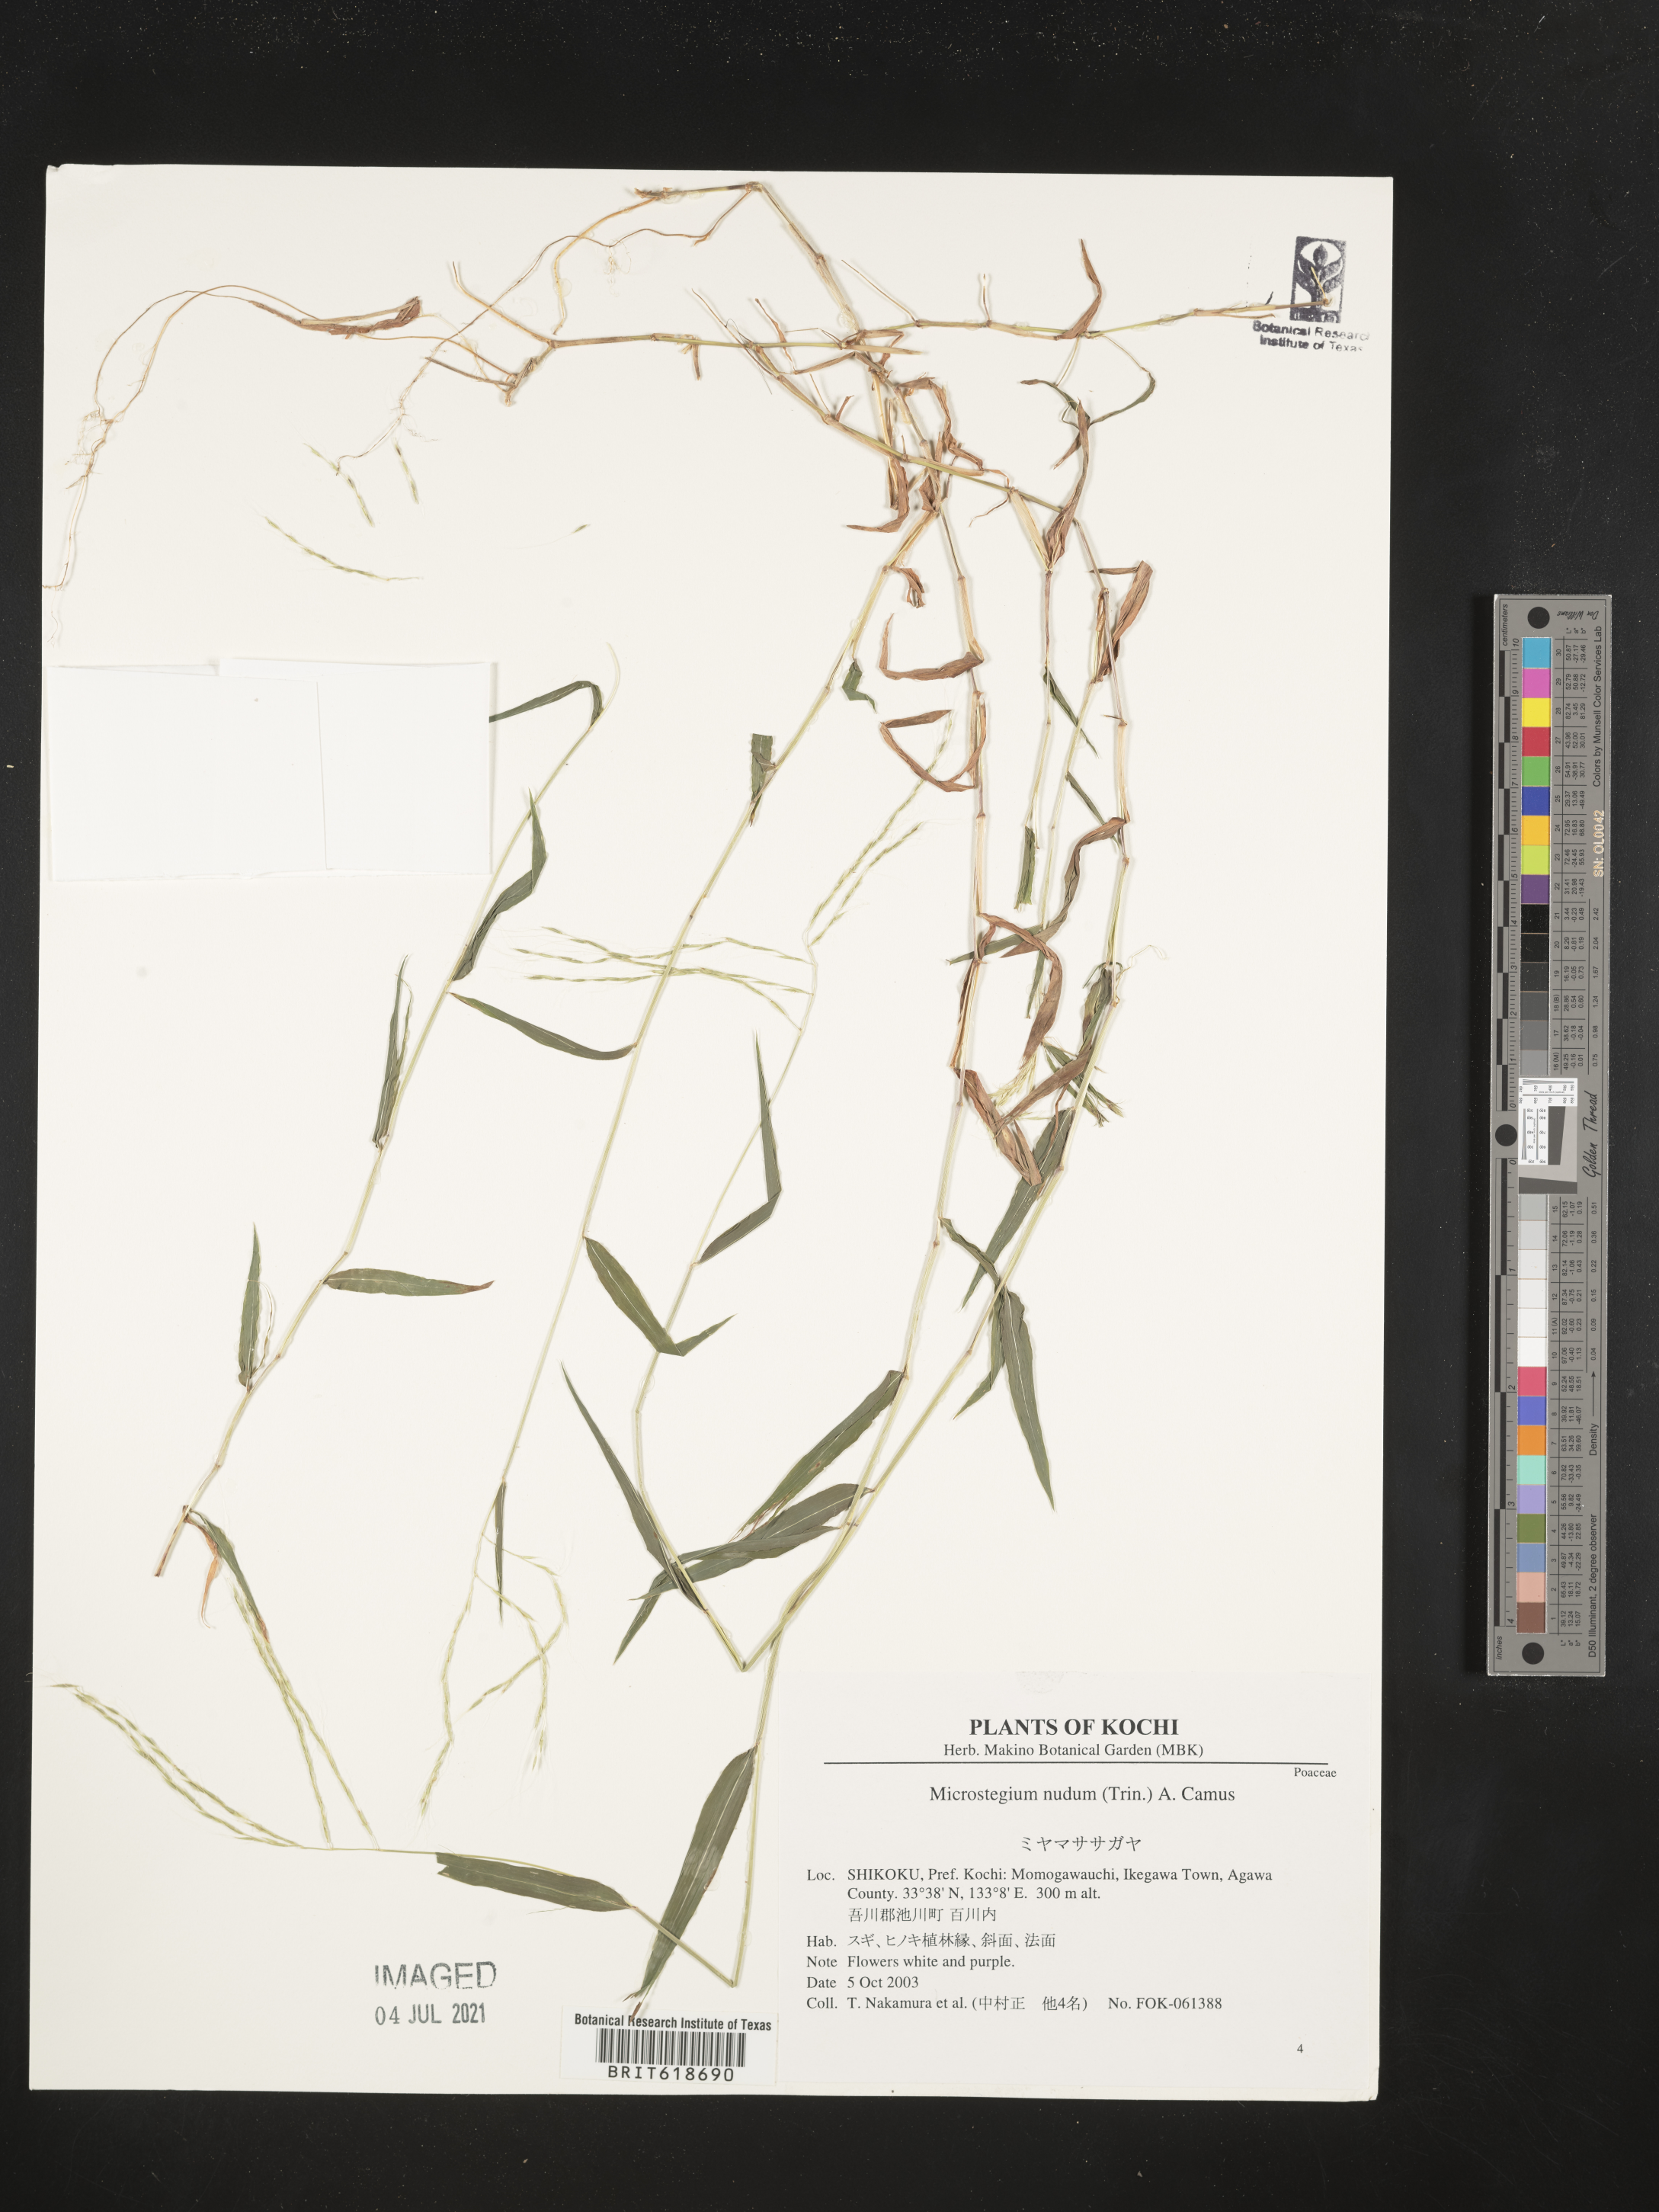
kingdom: Plantae
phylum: Tracheophyta
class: Liliopsida
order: Poales
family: Poaceae
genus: Microstegium
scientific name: Microstegium nudum
